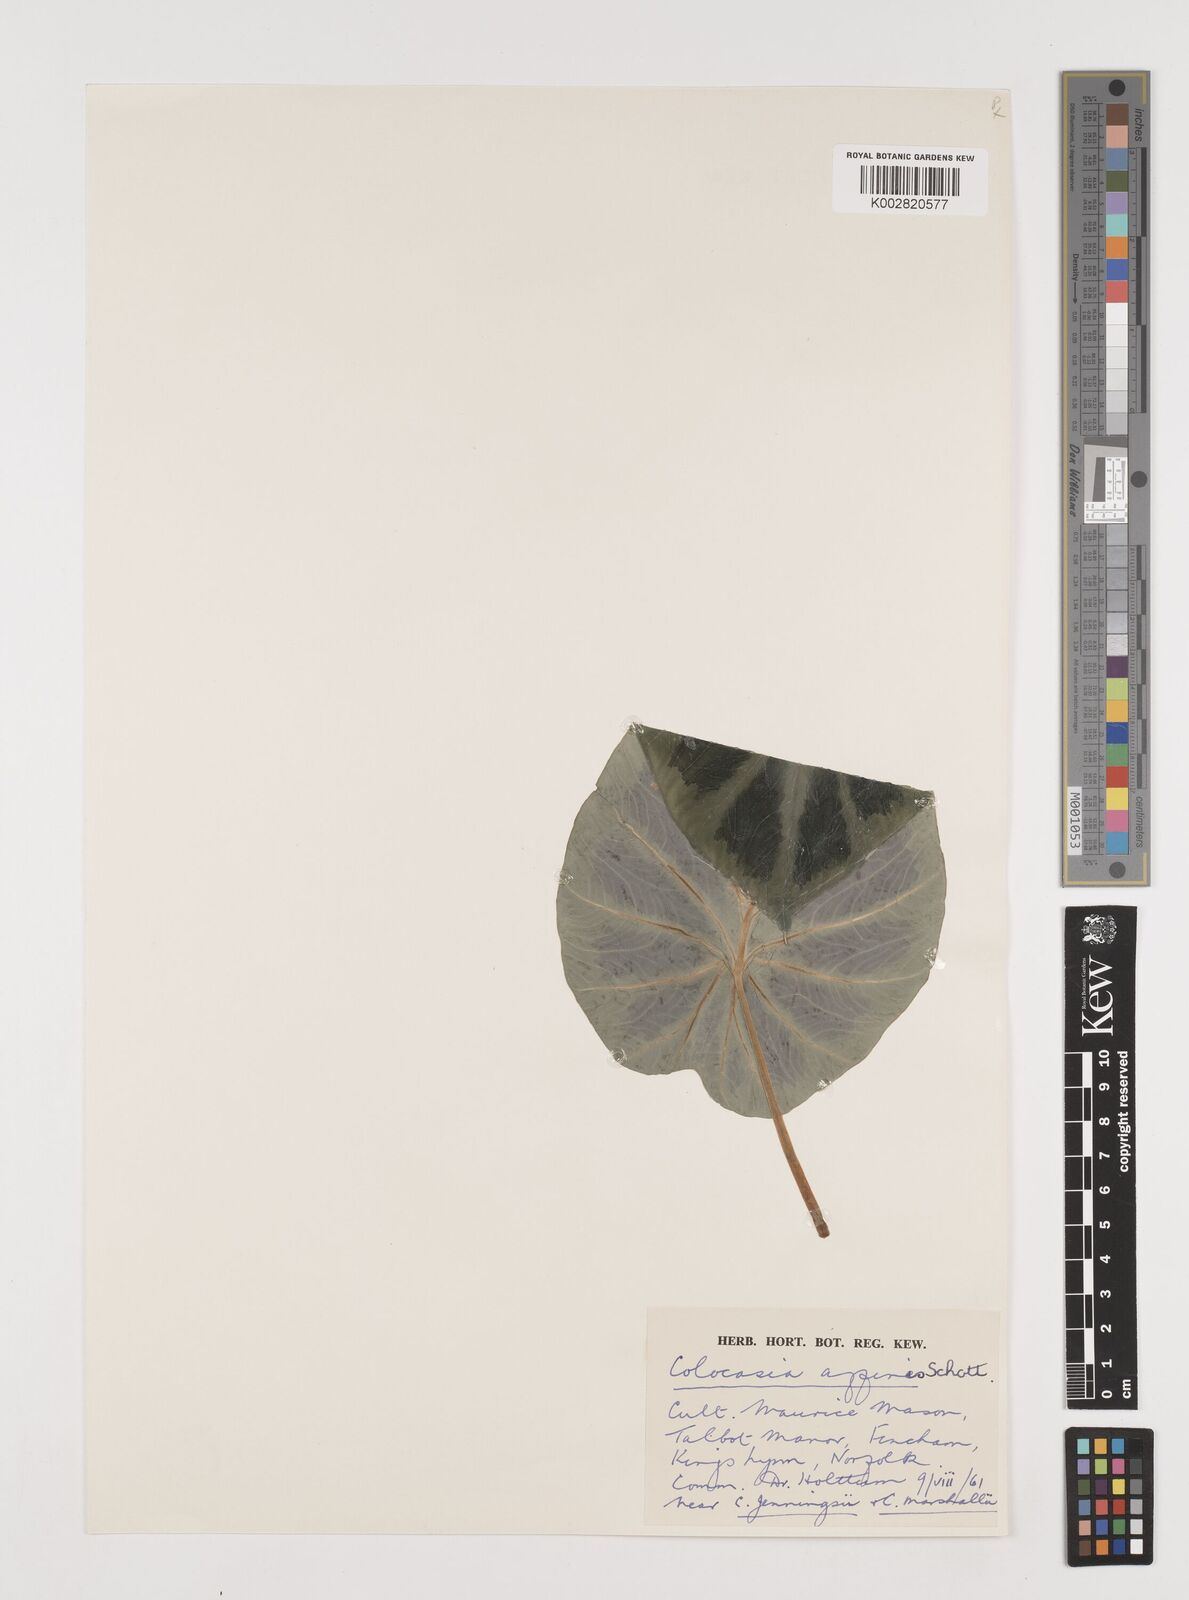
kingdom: Plantae
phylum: Tracheophyta
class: Liliopsida
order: Alismatales
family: Araceae
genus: Colocasia
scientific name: Colocasia affinis
